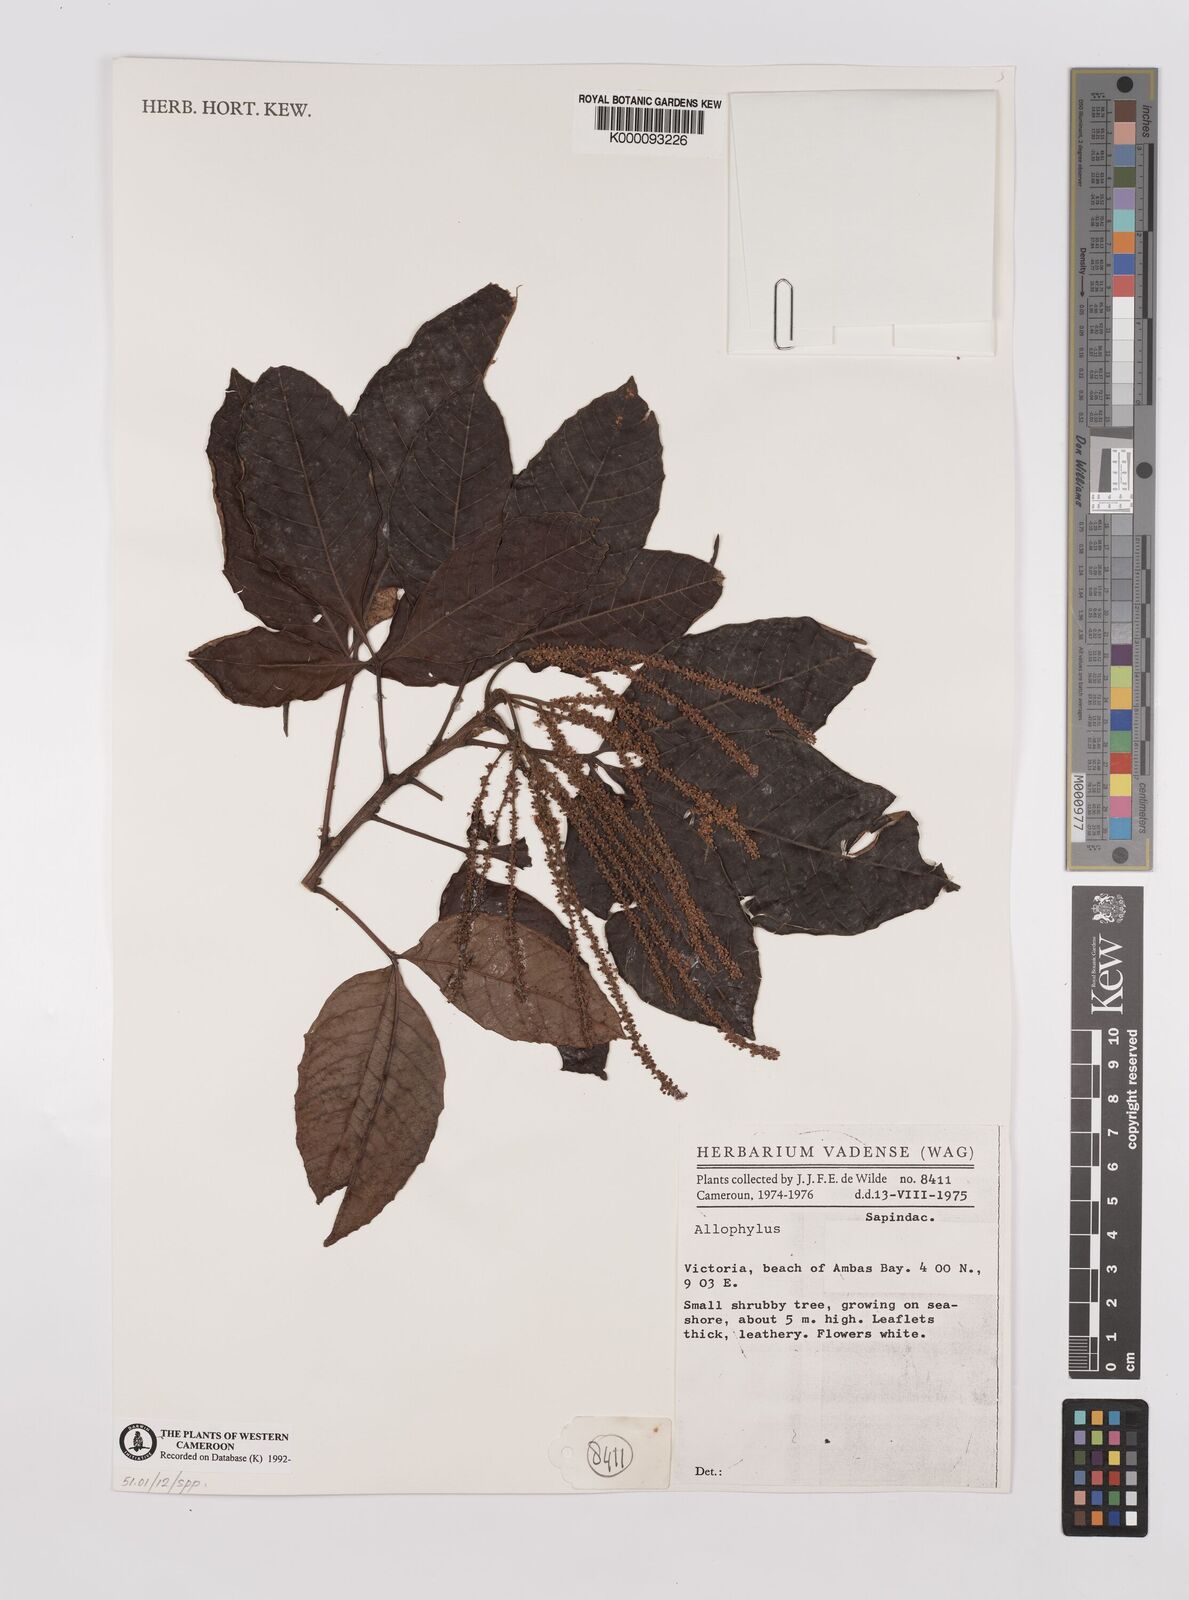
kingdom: Plantae
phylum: Tracheophyta
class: Magnoliopsida
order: Sapindales
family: Sapindaceae
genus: Allophylus
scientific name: Allophylus
